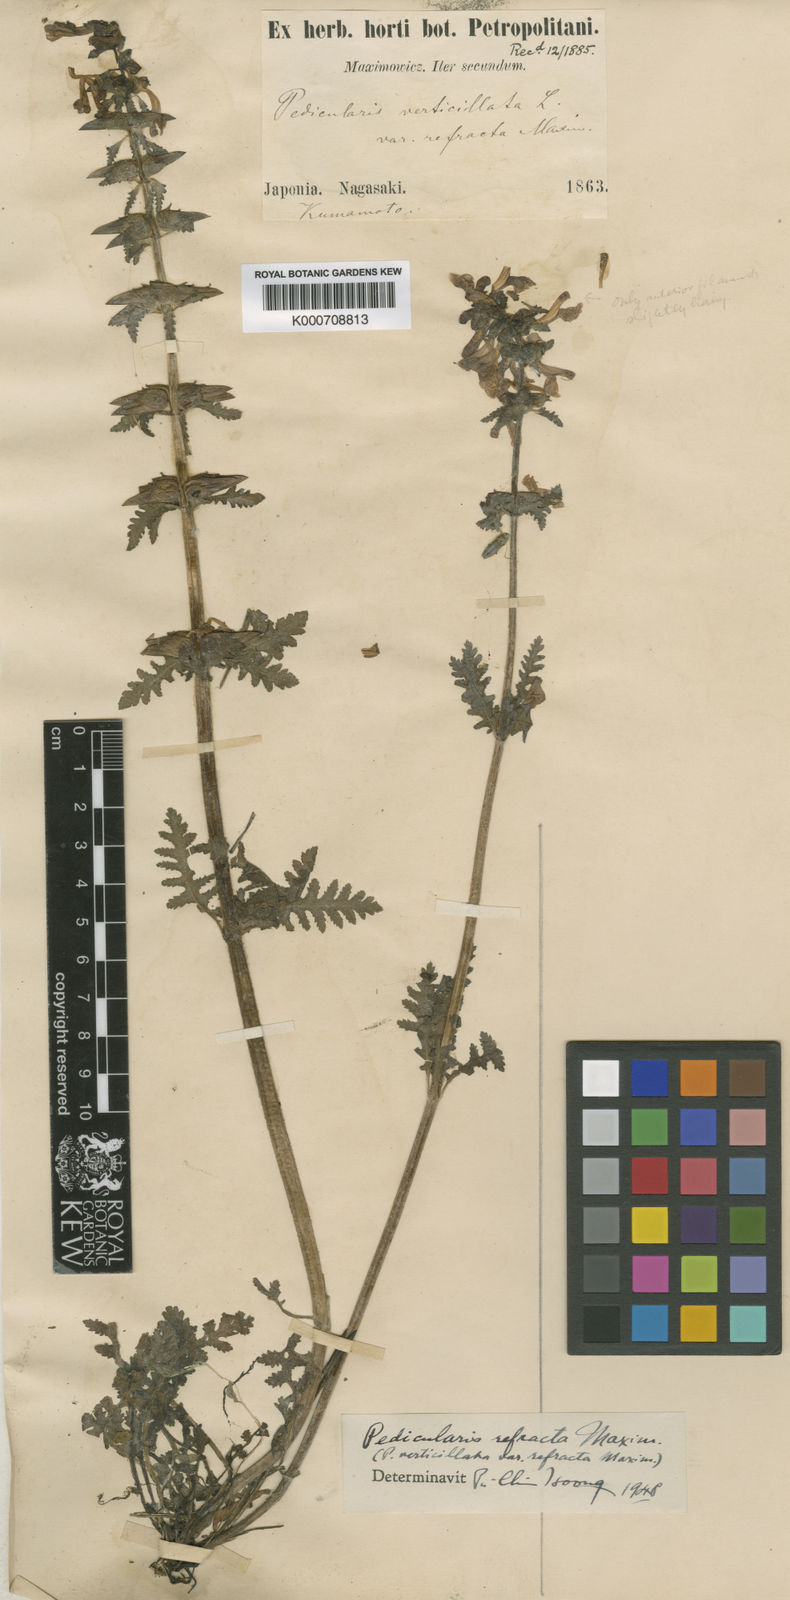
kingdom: Plantae
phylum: Tracheophyta
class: Magnoliopsida
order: Lamiales
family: Orobanchaceae
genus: Pedicularis
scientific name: Pedicularis
